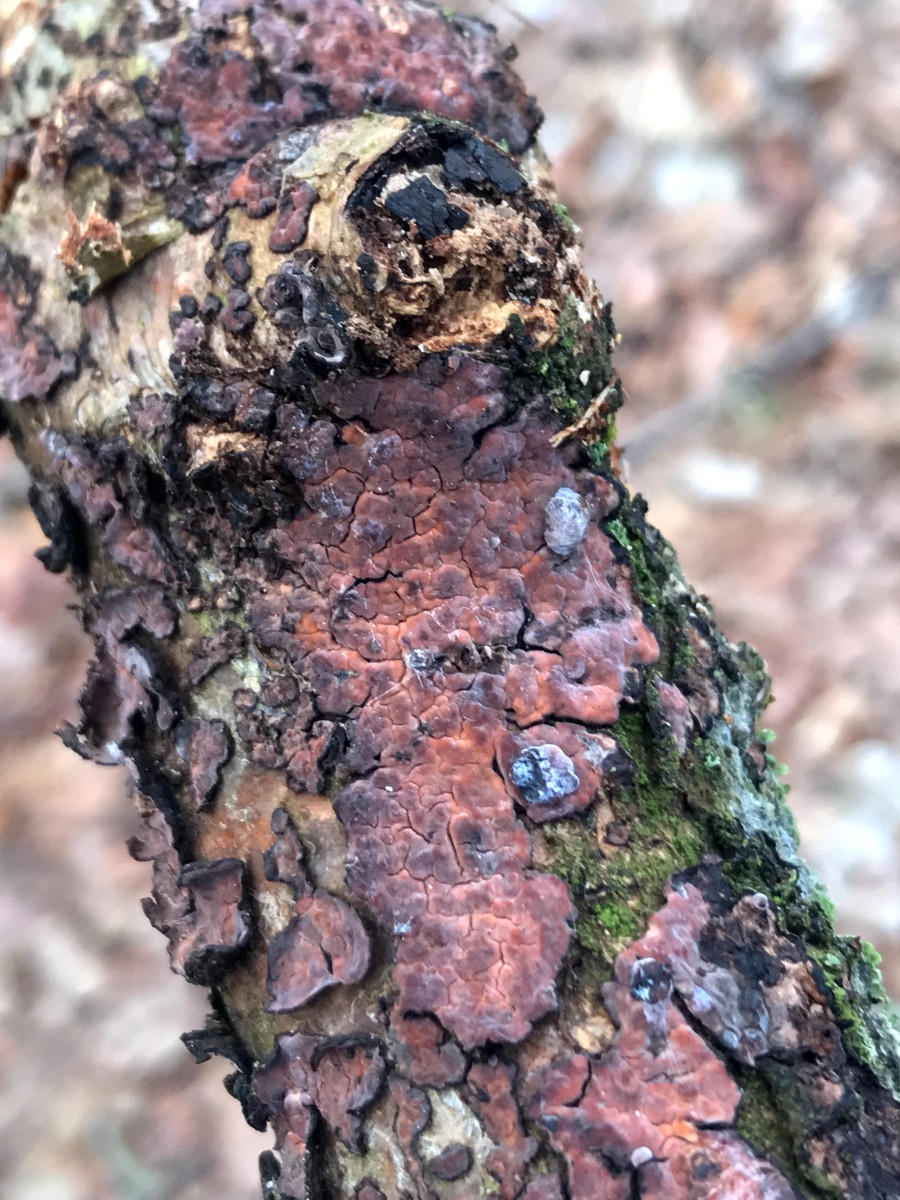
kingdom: Fungi
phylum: Basidiomycota
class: Agaricomycetes
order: Russulales
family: Peniophoraceae
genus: Peniophora
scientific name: Peniophora quercina
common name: ege-voksskind
